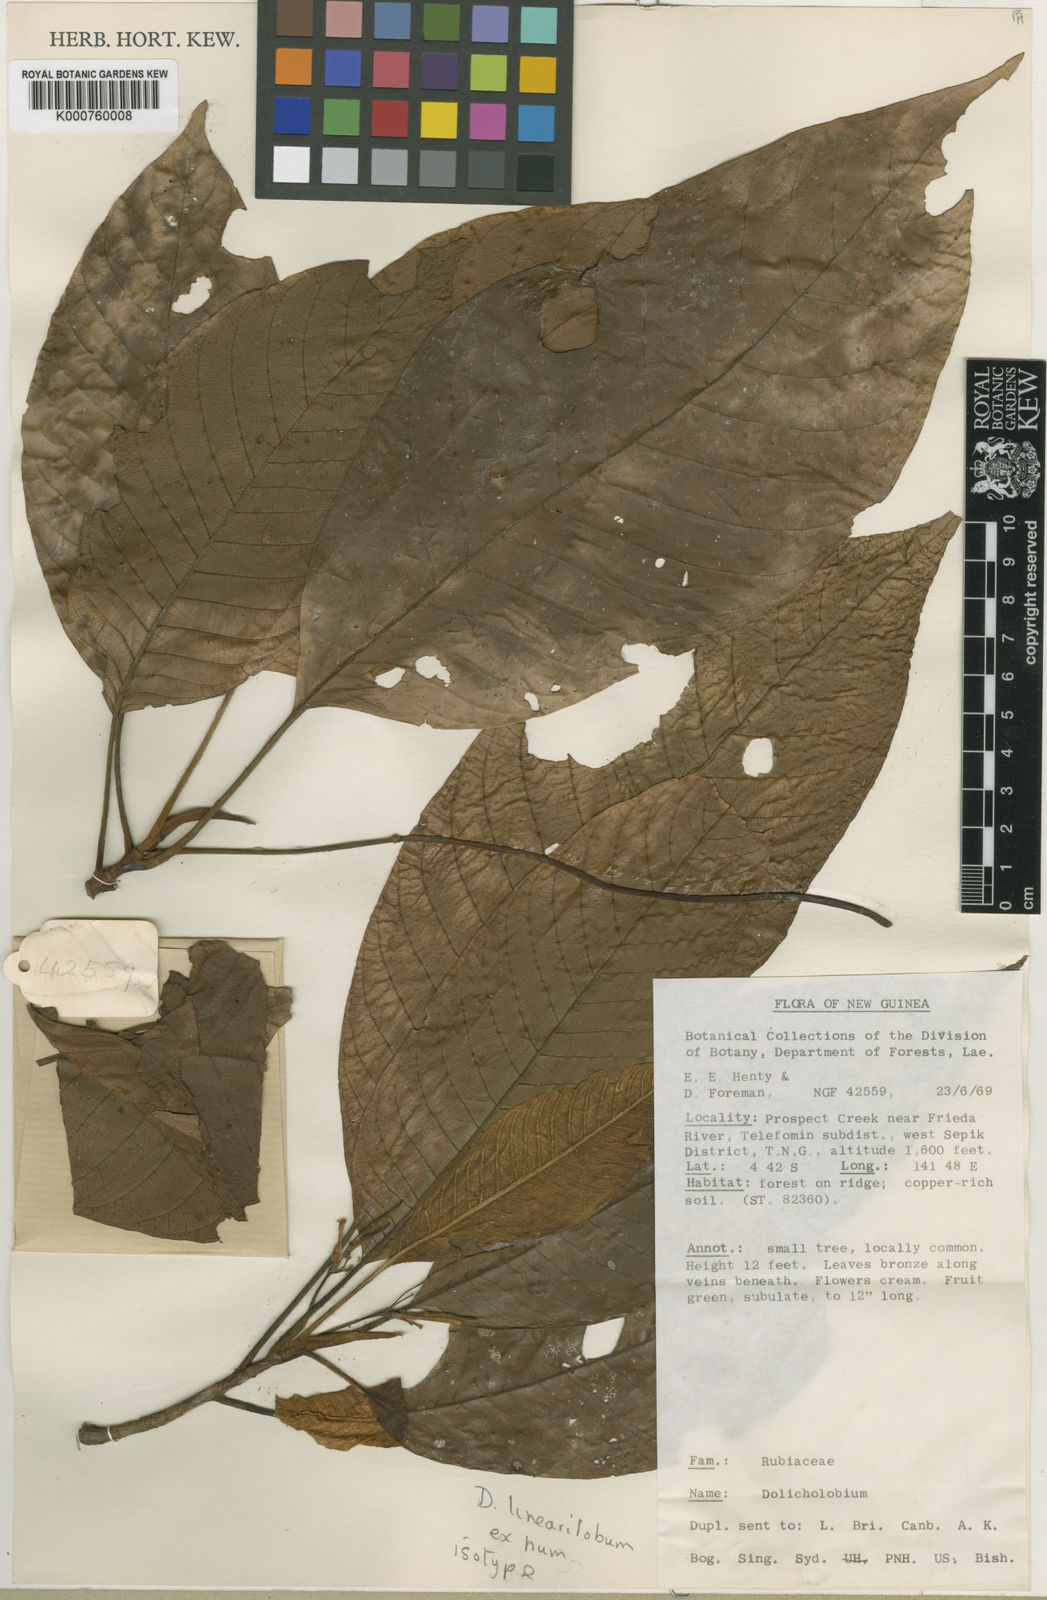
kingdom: Plantae
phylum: Tracheophyta
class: Magnoliopsida
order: Gentianales
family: Rubiaceae
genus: Dolicholobium
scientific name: Dolicholobium linearilobum
